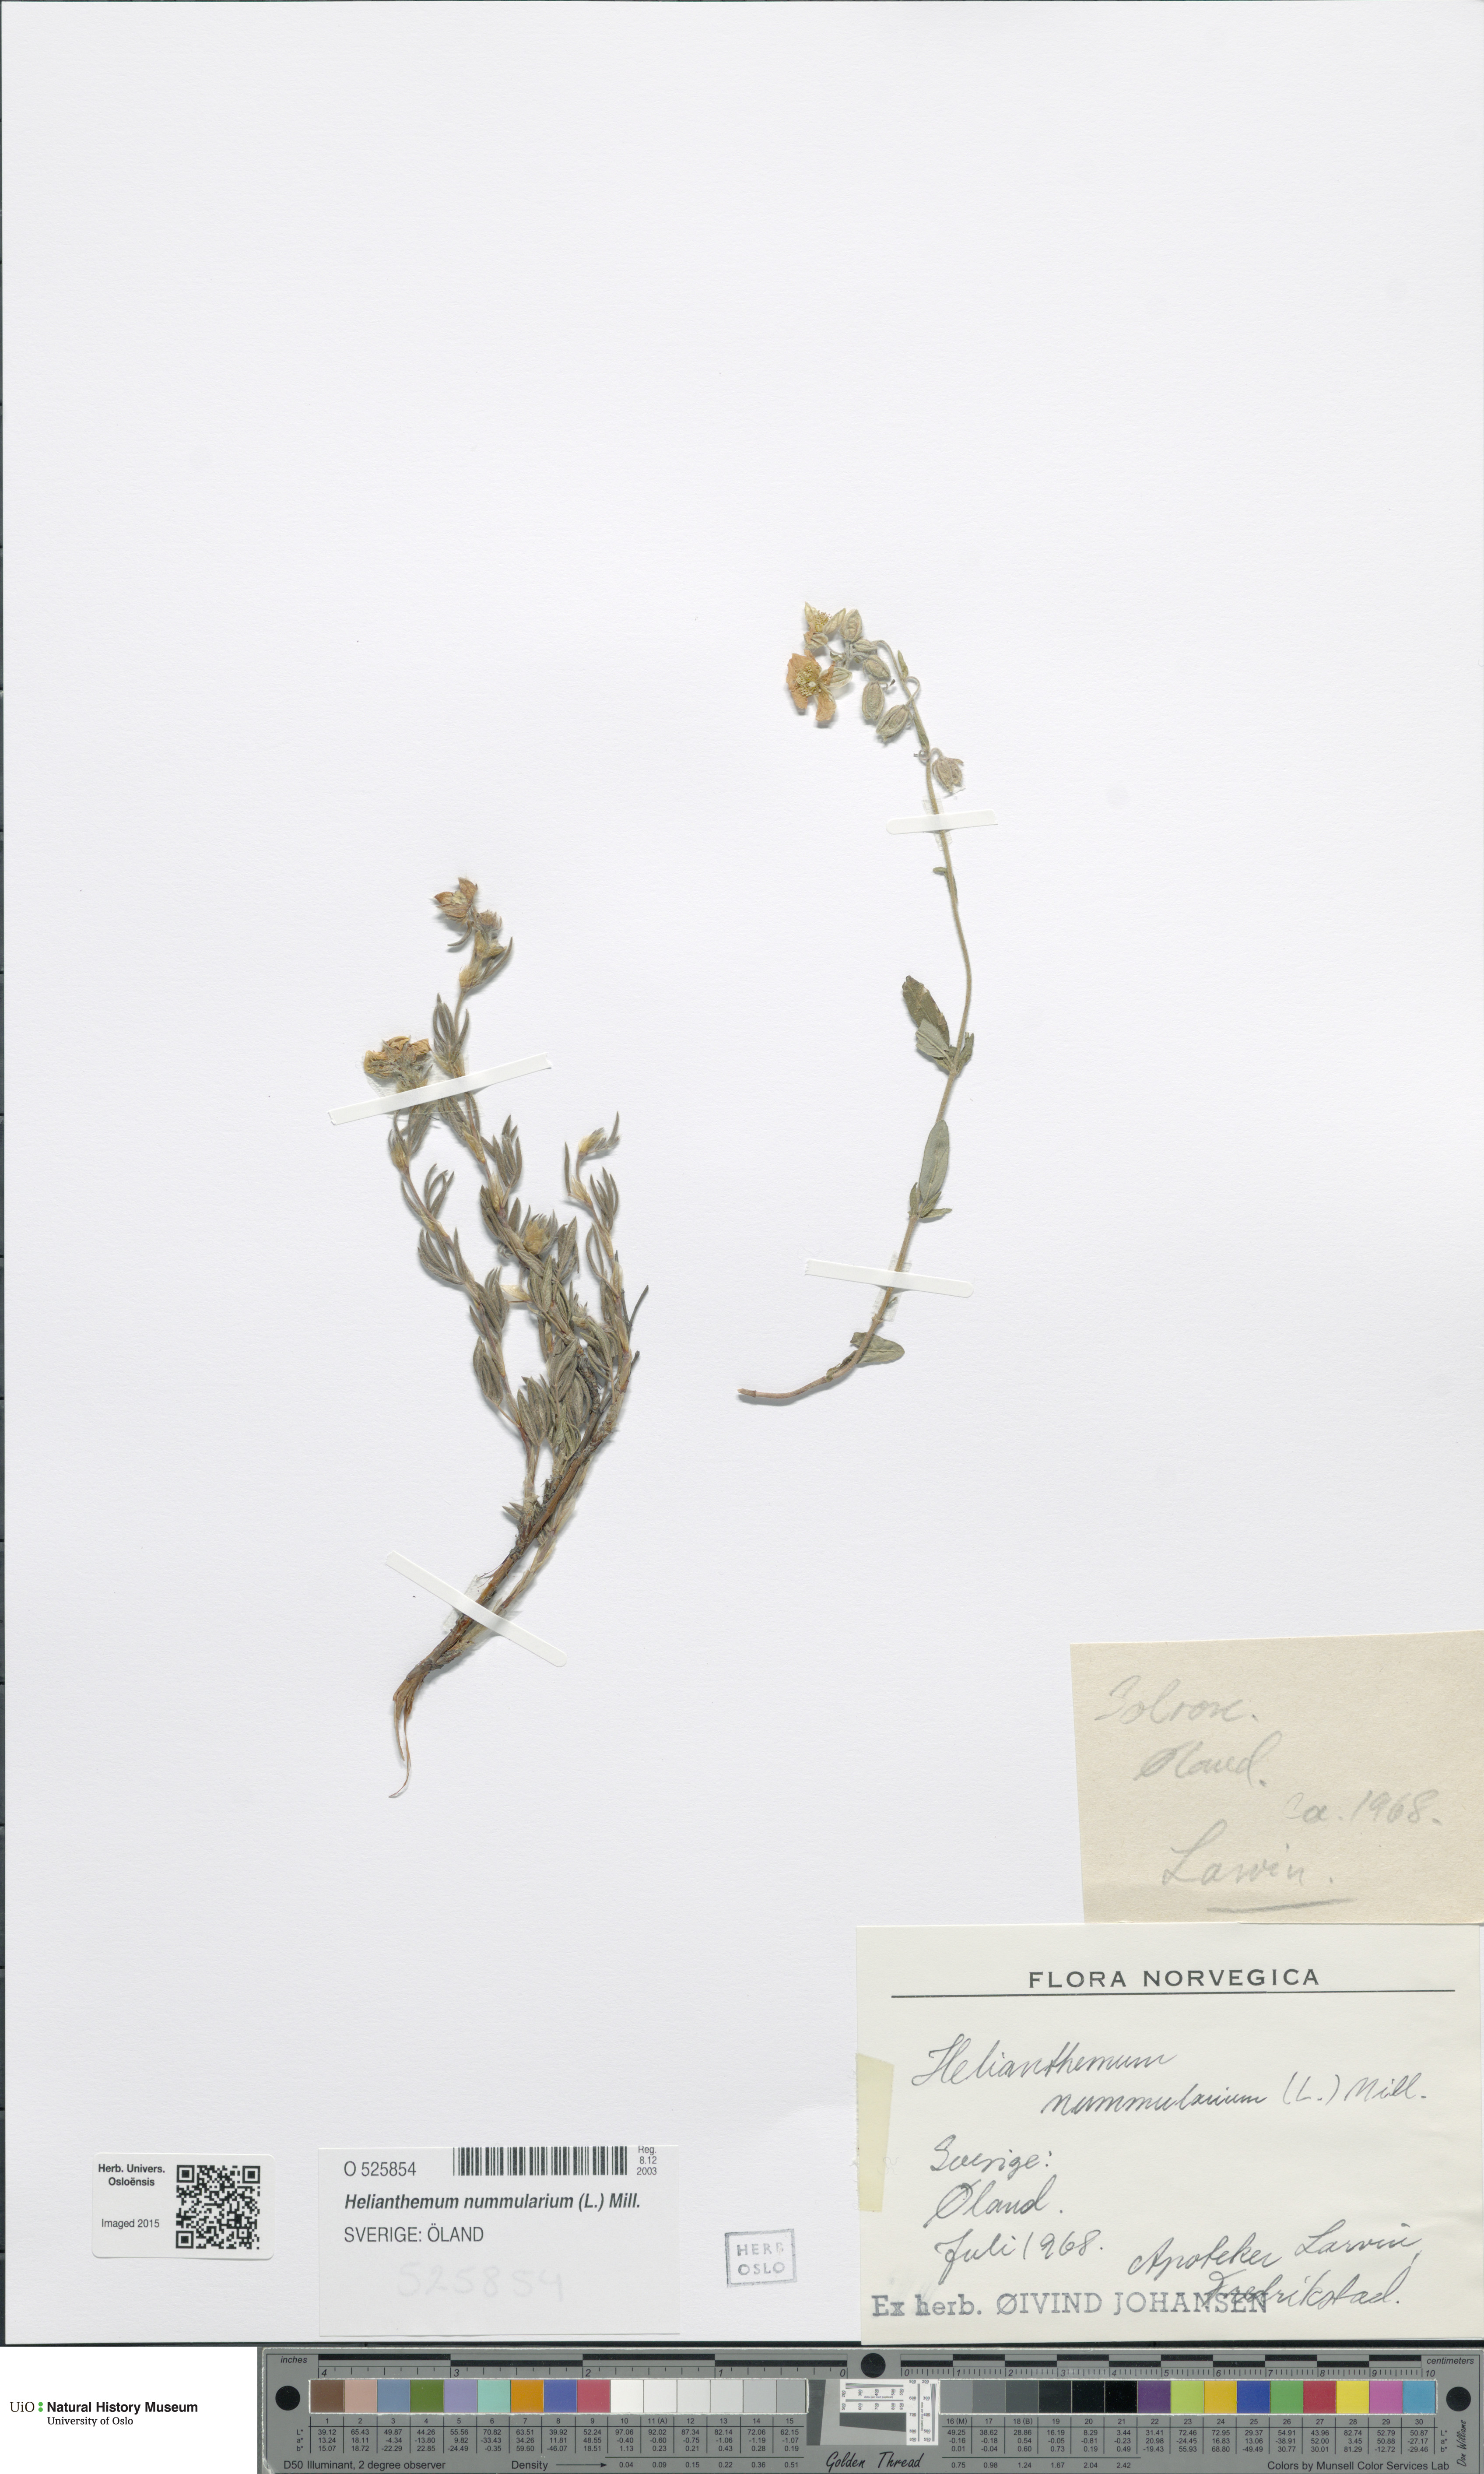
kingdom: Plantae
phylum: Tracheophyta
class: Magnoliopsida
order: Malvales
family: Cistaceae
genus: Helianthemum
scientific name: Helianthemum nummularium
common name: Common rock-rose
